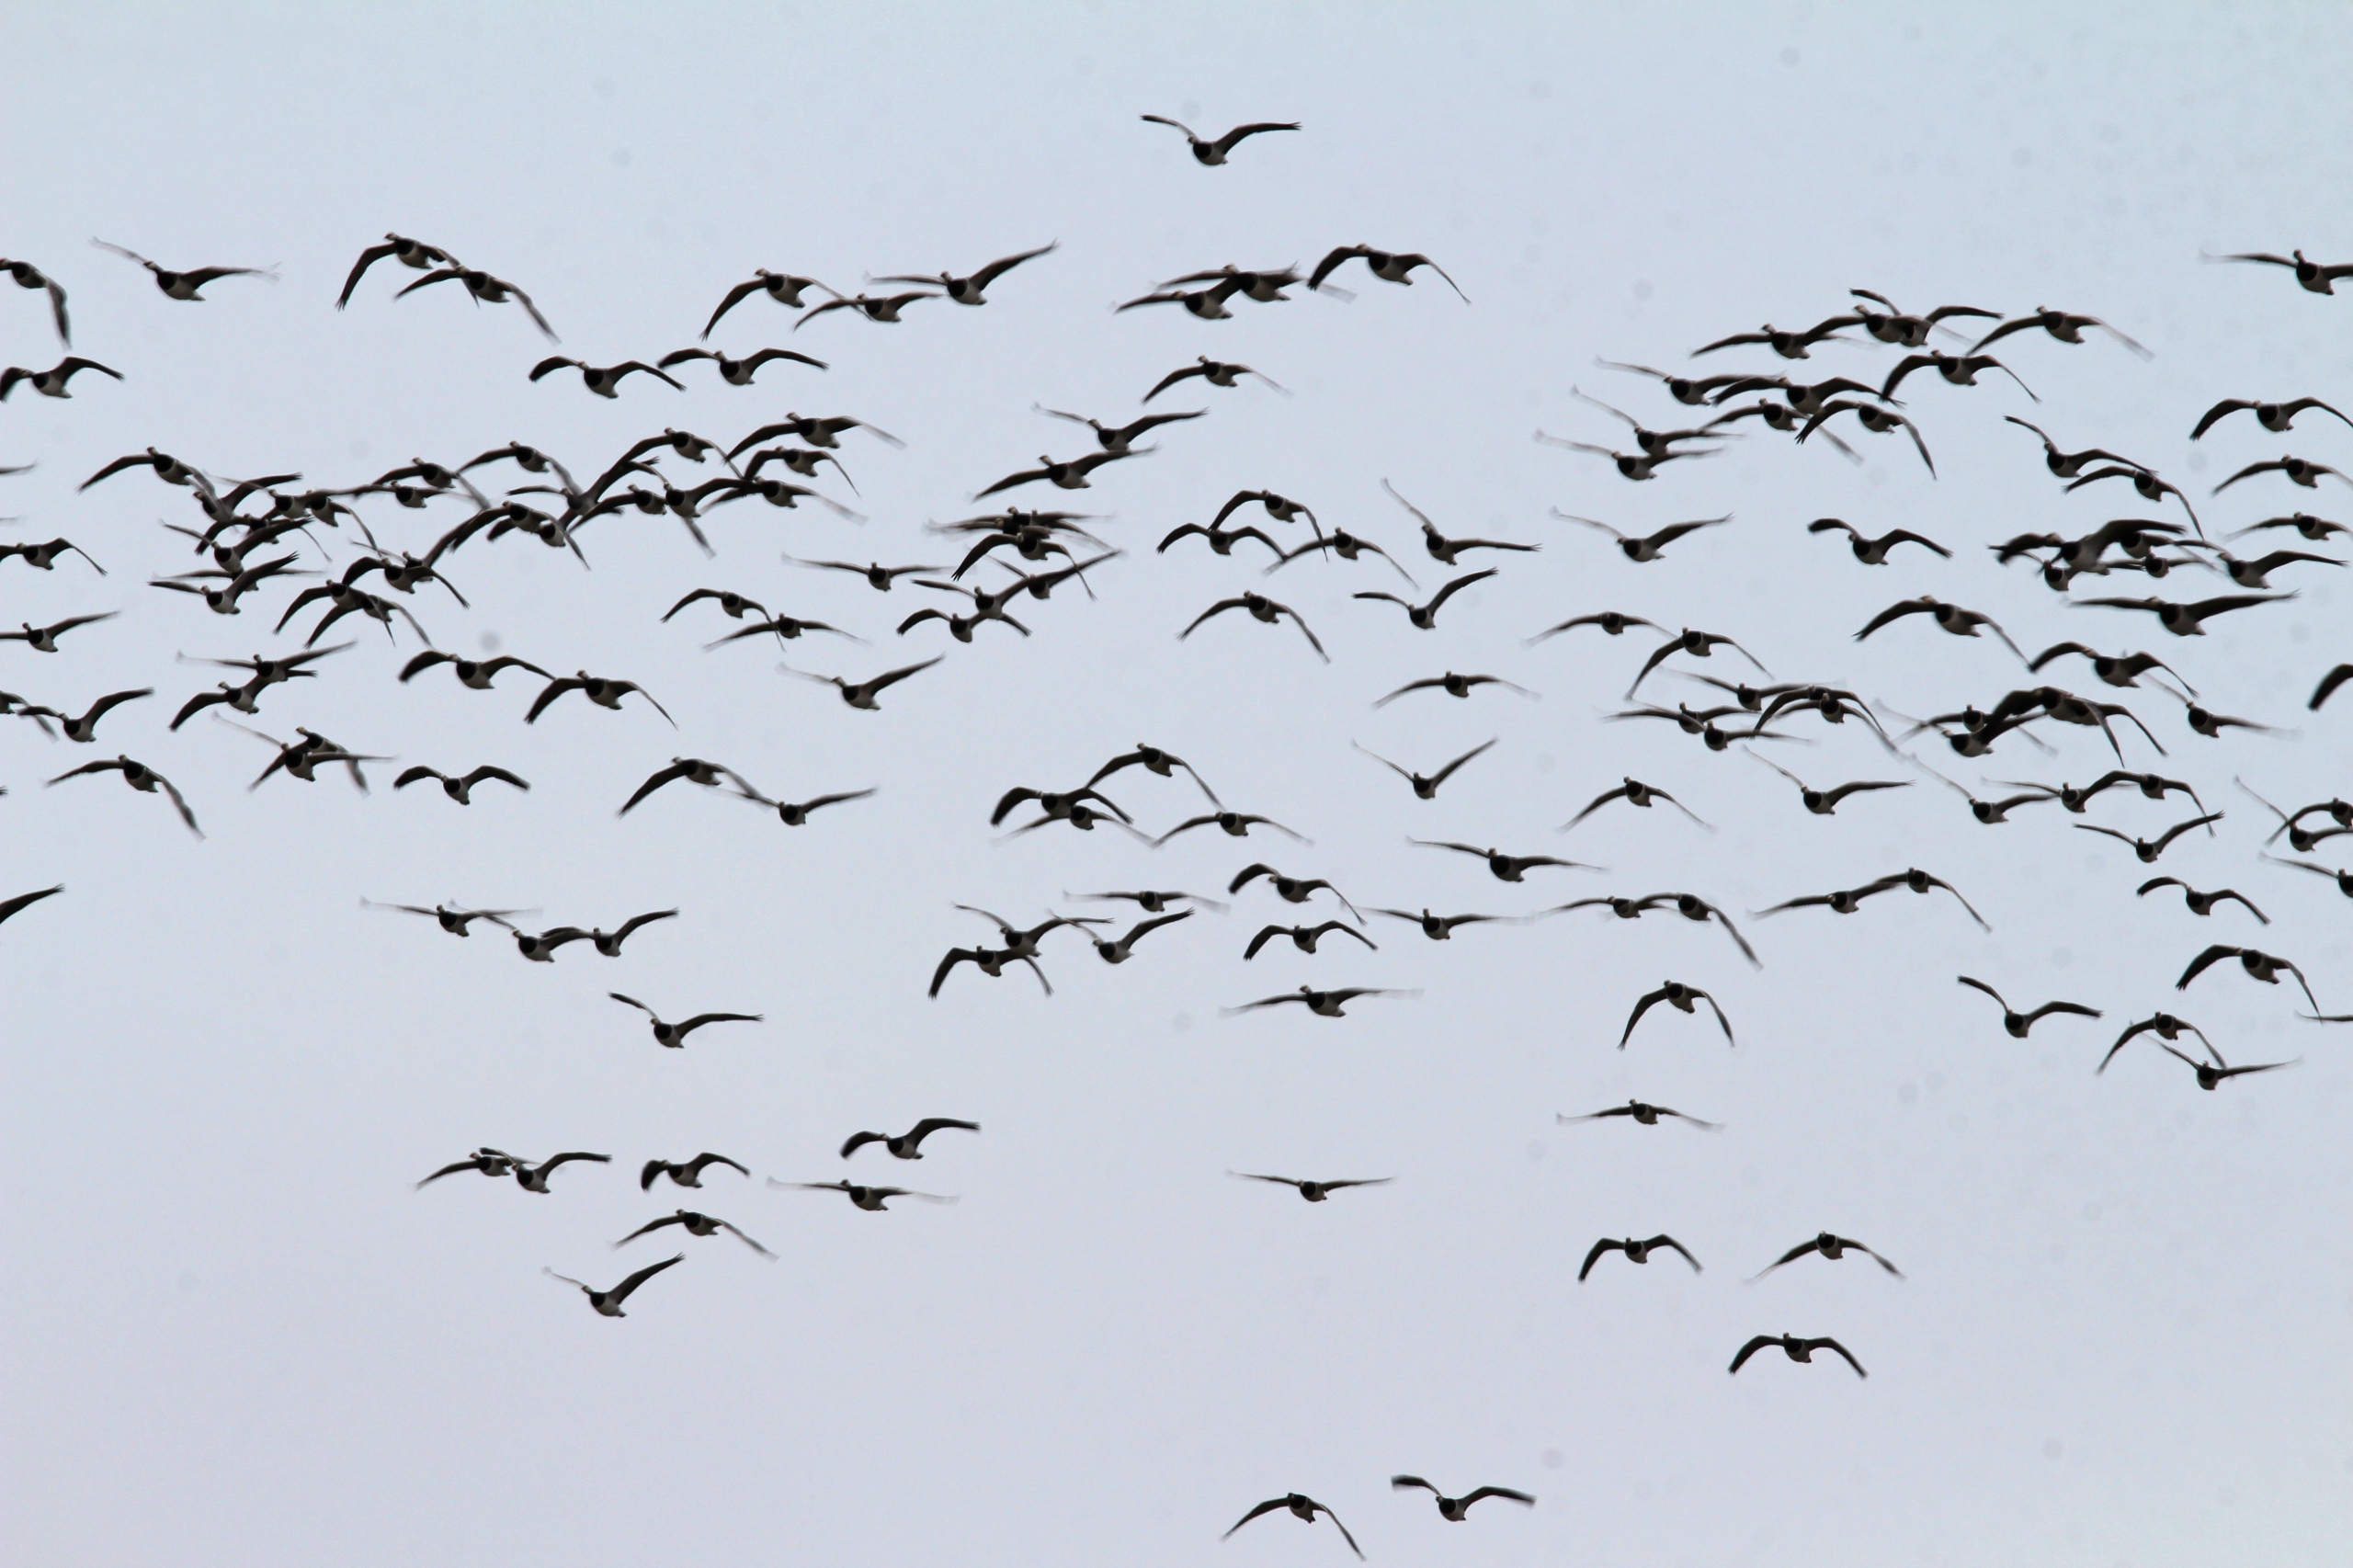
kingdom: Animalia
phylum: Chordata
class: Aves
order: Anseriformes
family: Anatidae
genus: Branta
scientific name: Branta leucopsis
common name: Bramgås
